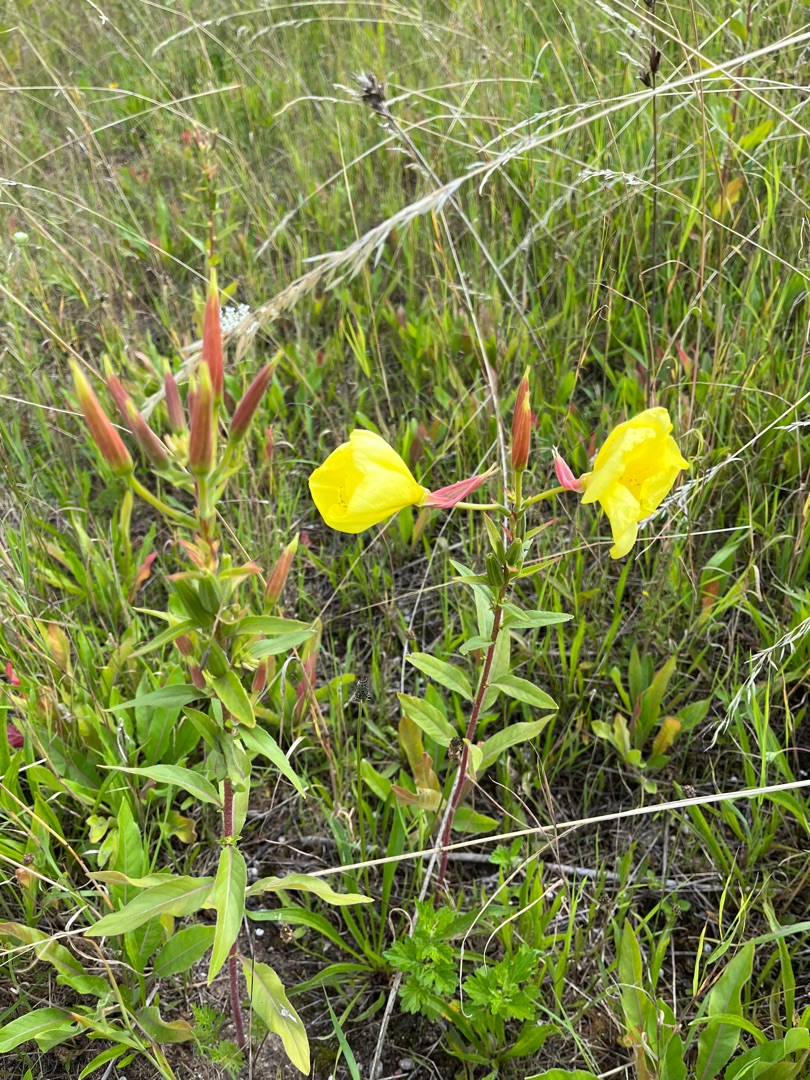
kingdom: Plantae
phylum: Tracheophyta
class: Magnoliopsida
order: Myrtales
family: Onagraceae
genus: Oenothera
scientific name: Oenothera glazioviana
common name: Kæmpe-natlys
